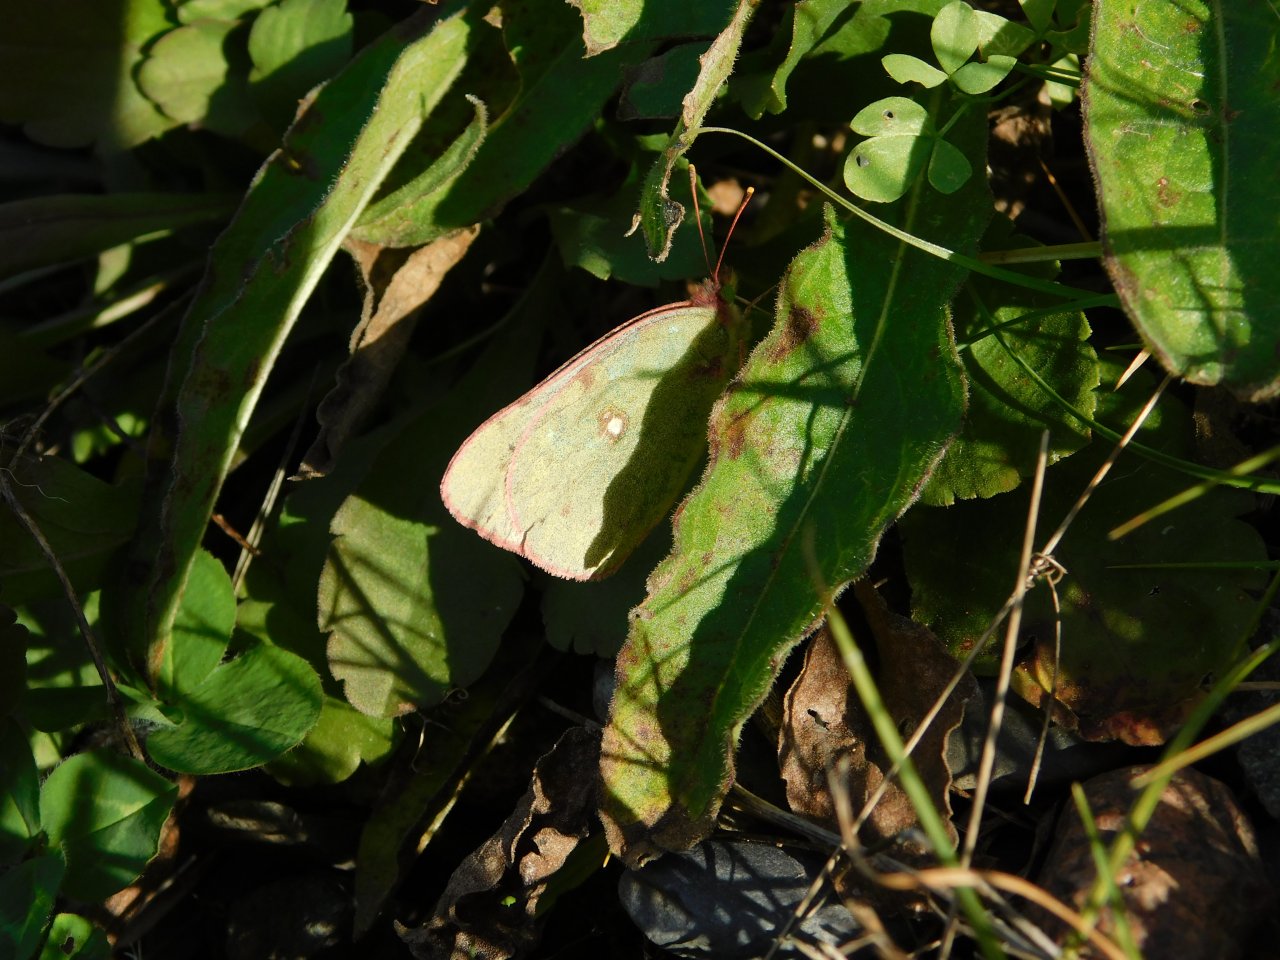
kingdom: Animalia
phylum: Arthropoda
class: Insecta
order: Lepidoptera
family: Pieridae
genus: Colias
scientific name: Colias philodice
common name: Clouded Sulphur
